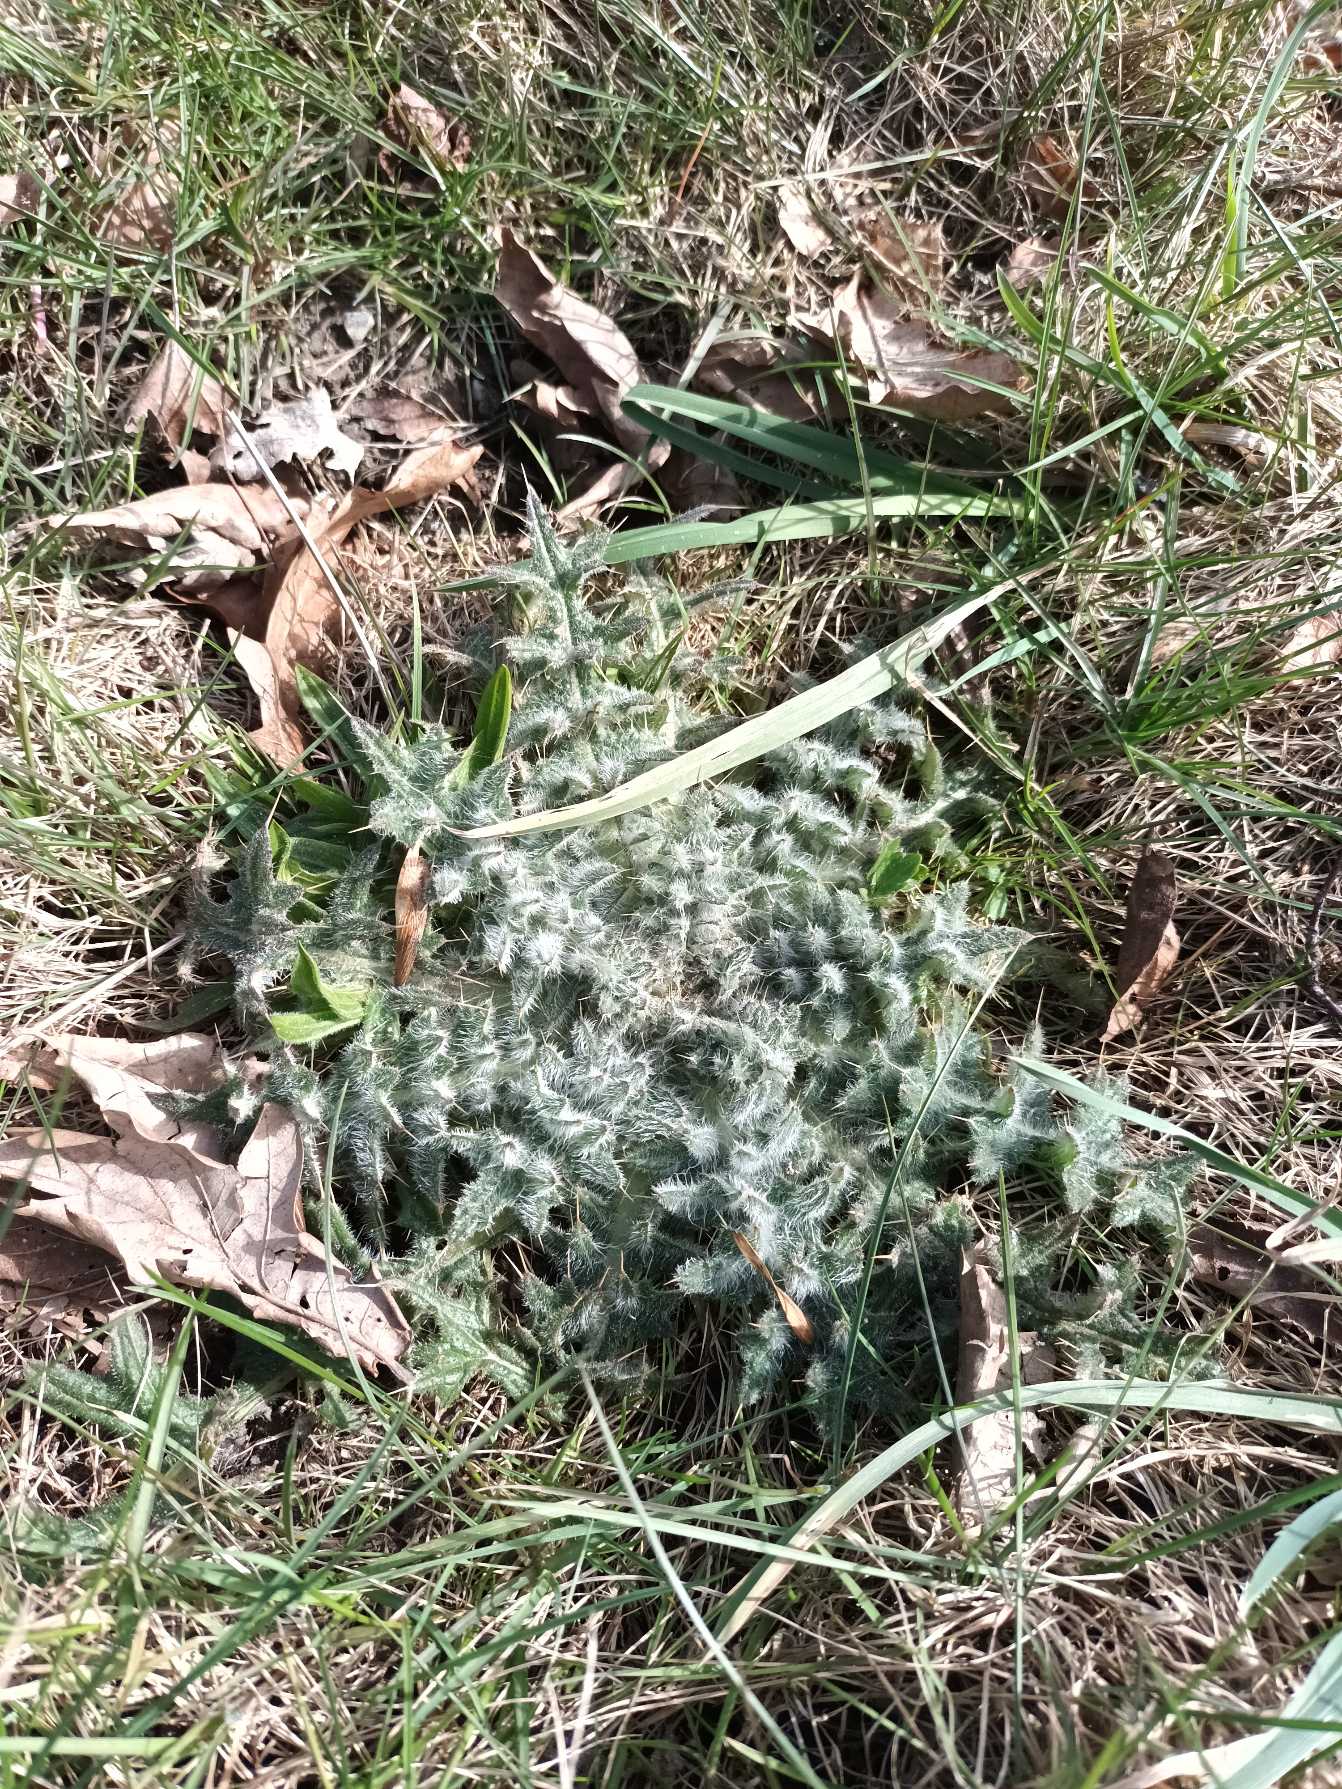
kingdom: Plantae
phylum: Tracheophyta
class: Magnoliopsida
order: Asterales
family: Asteraceae
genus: Cirsium
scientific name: Cirsium vulgare
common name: Horse-tidsel
